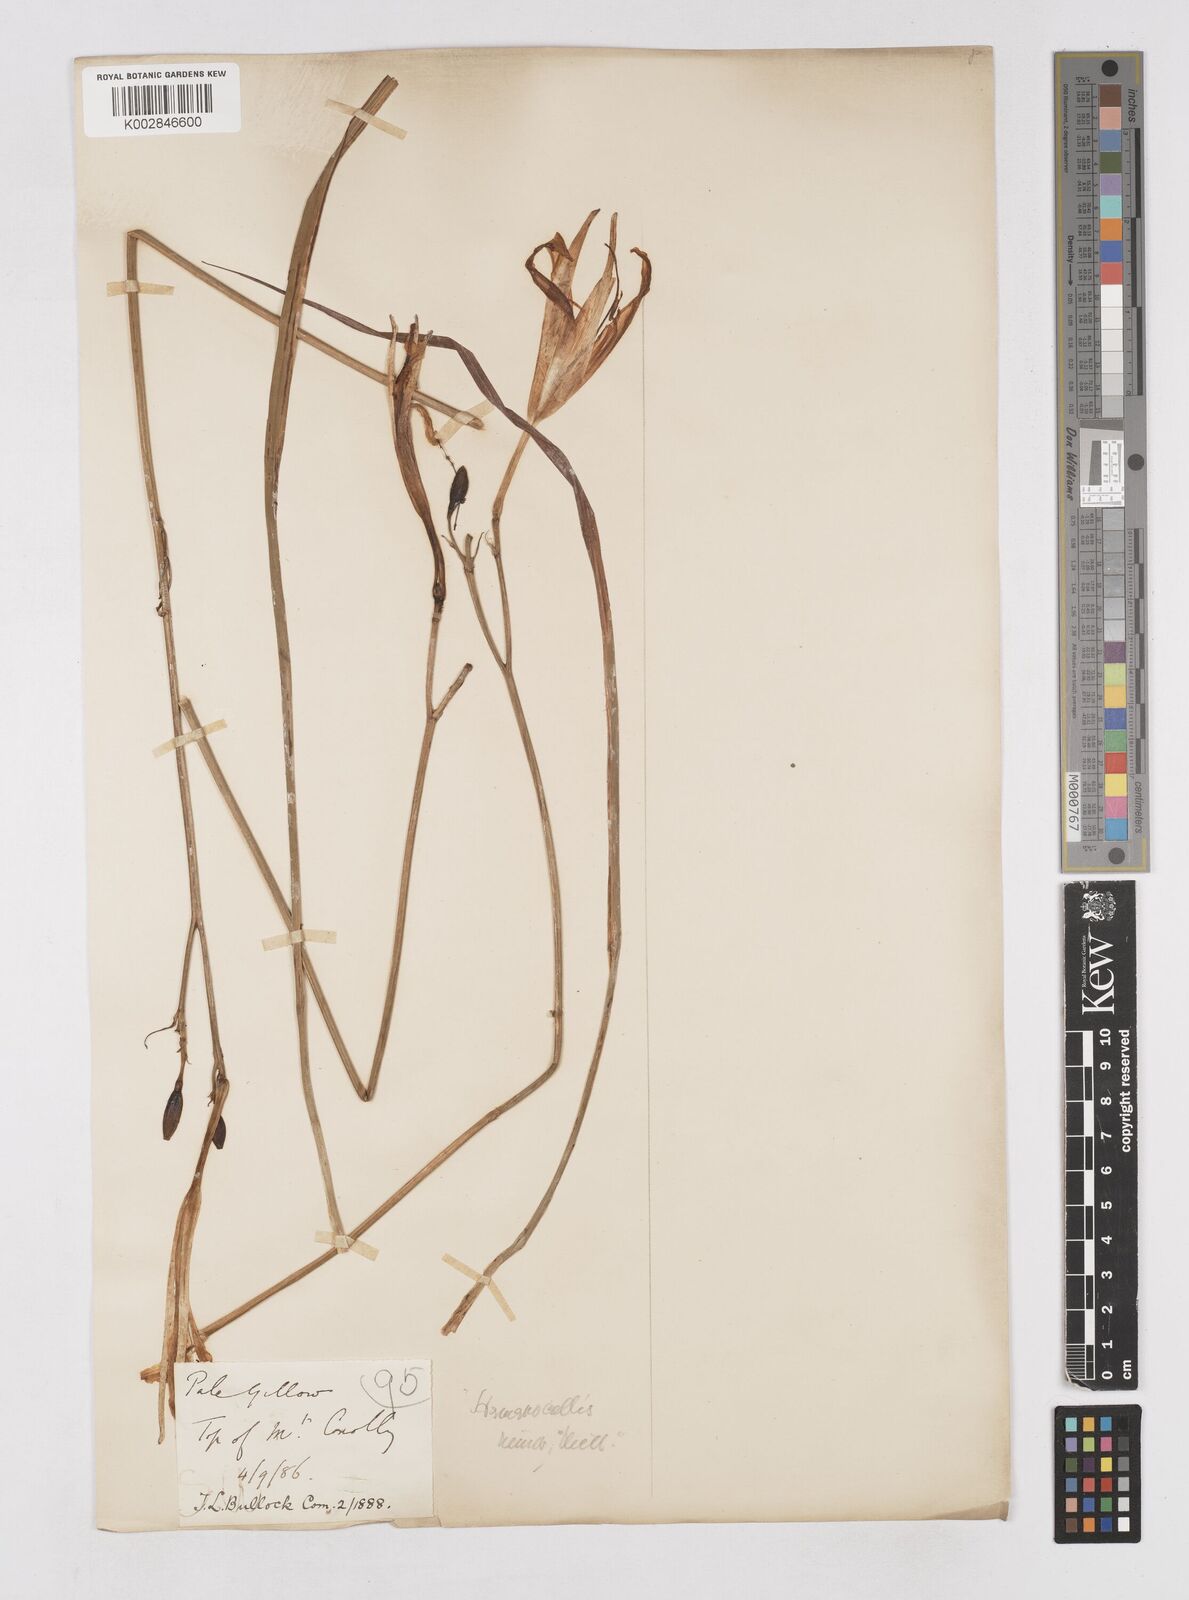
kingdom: Plantae
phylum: Tracheophyta
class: Liliopsida
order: Asparagales
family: Asphodelaceae
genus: Hemerocallis
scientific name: Hemerocallis minor
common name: Small daylily
